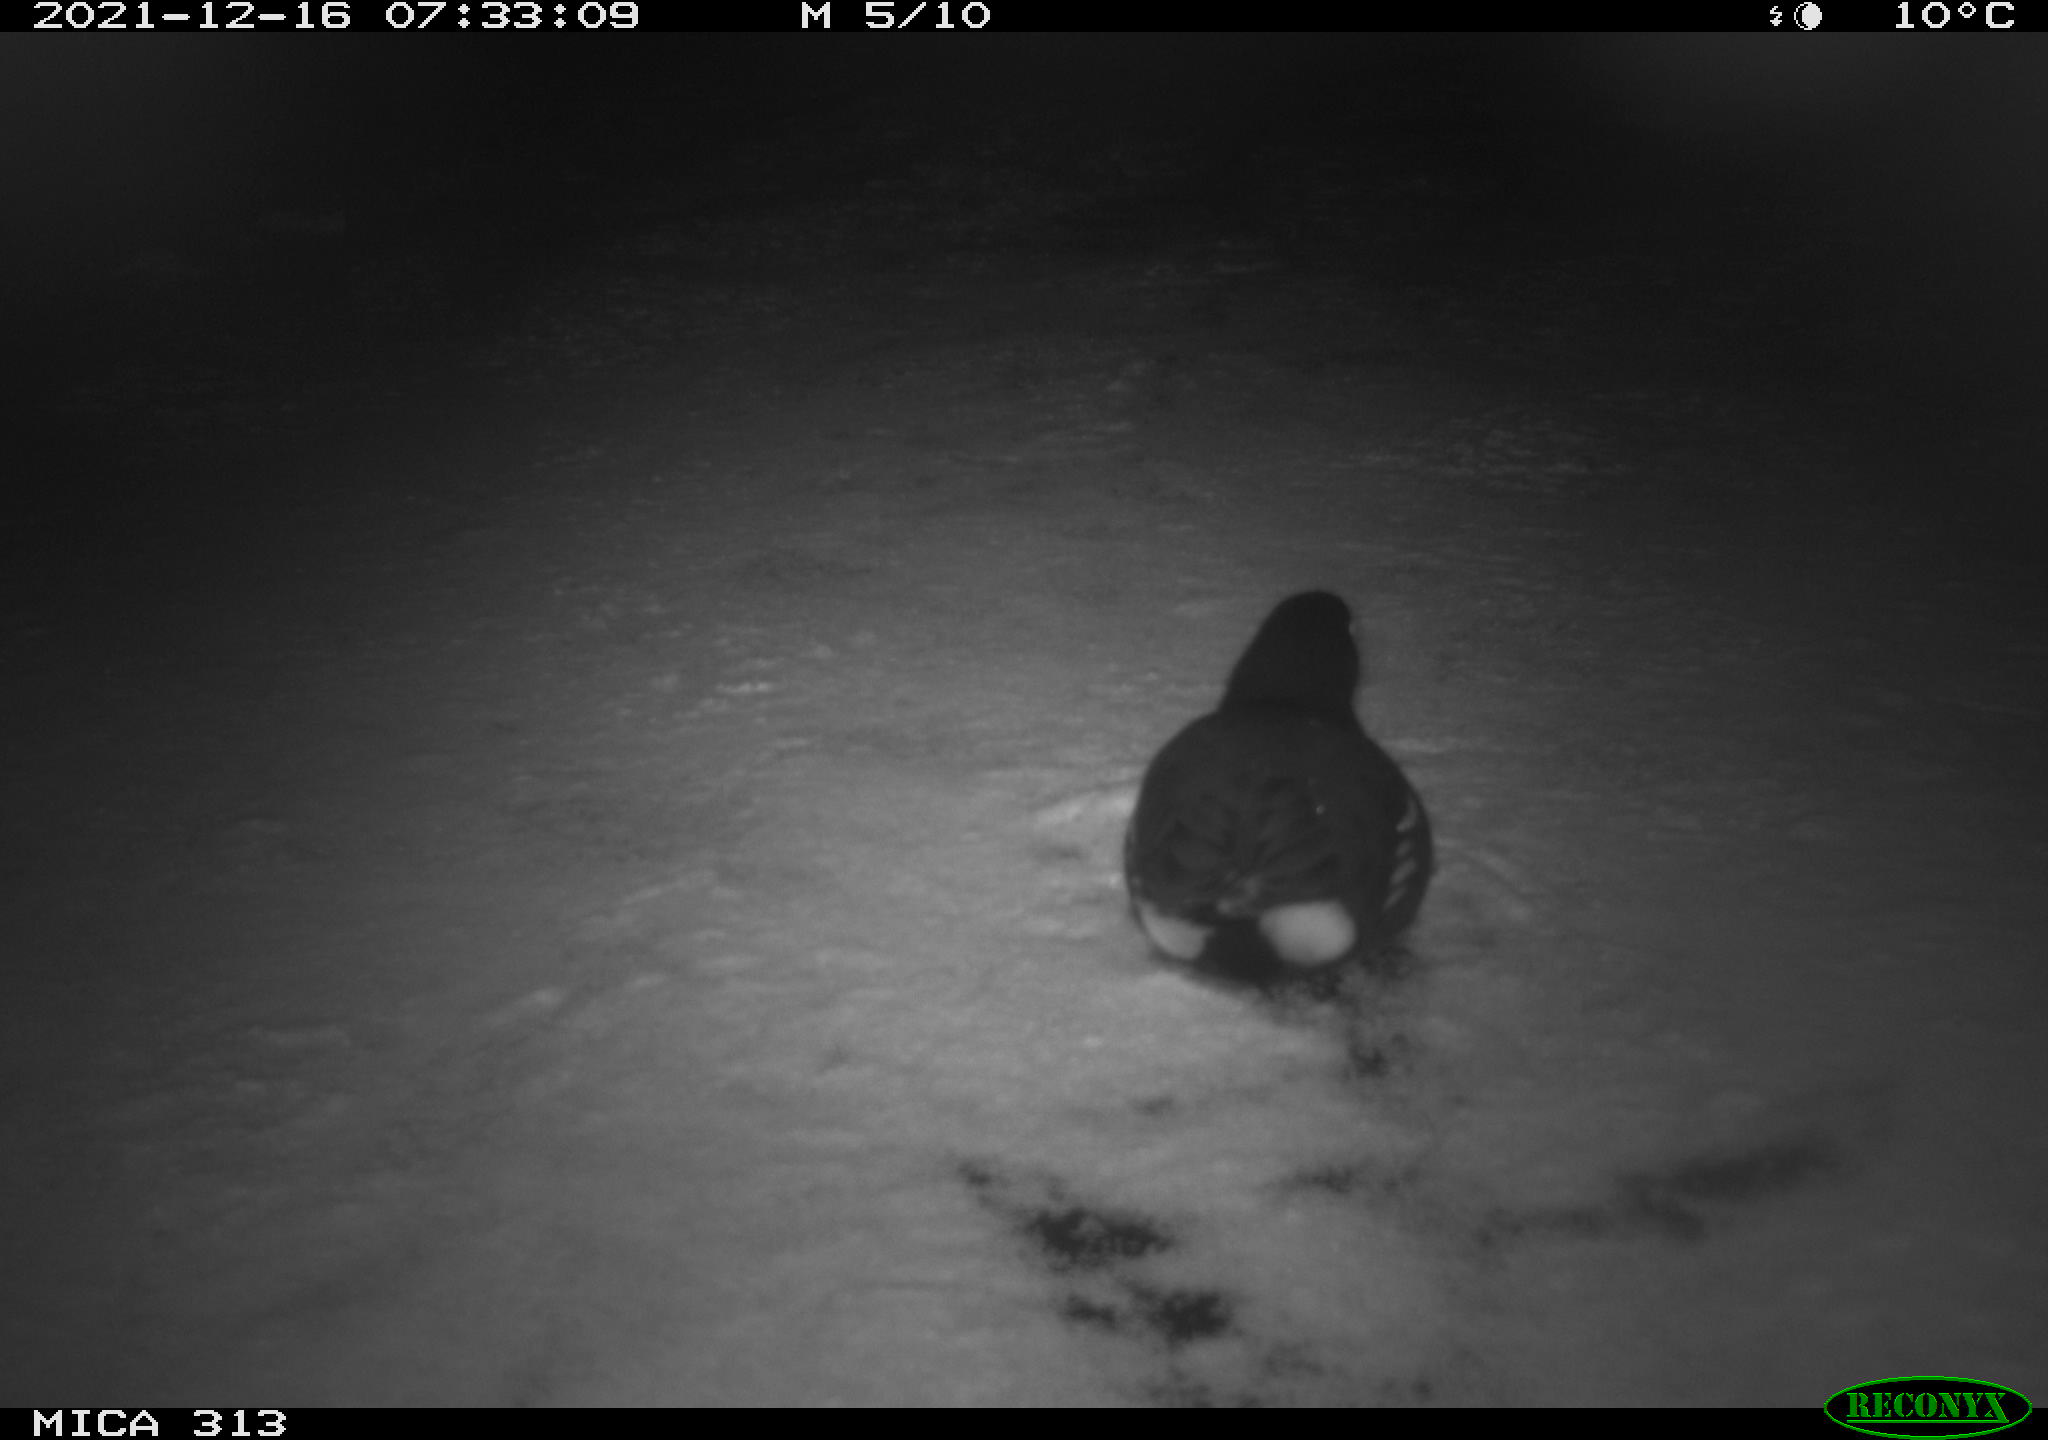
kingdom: Animalia
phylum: Chordata
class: Aves
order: Gruiformes
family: Rallidae
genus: Gallinula
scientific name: Gallinula chloropus
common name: Common moorhen
